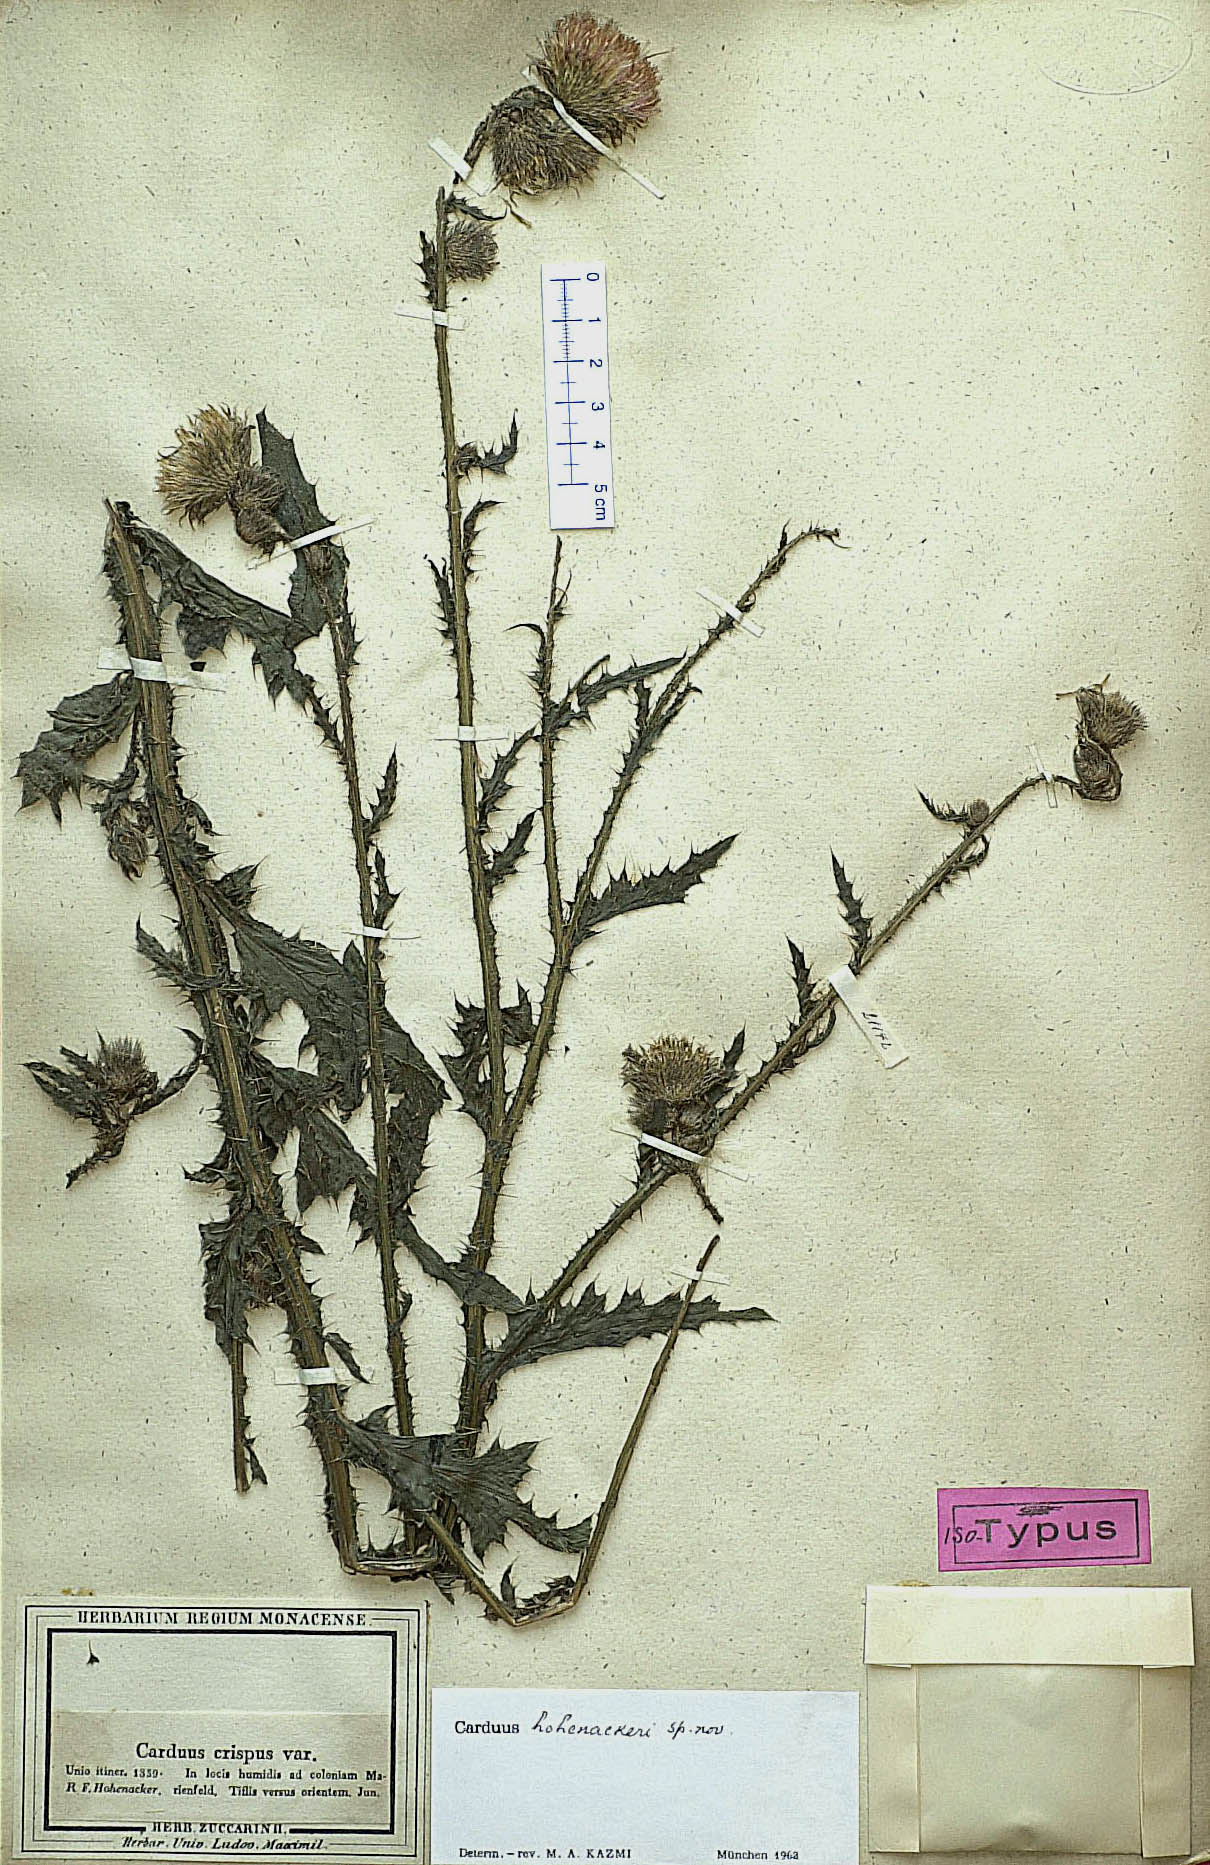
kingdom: Plantae
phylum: Tracheophyta
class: Magnoliopsida
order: Asterales
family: Asteraceae
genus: Carduus
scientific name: Carduus hohenackeri
